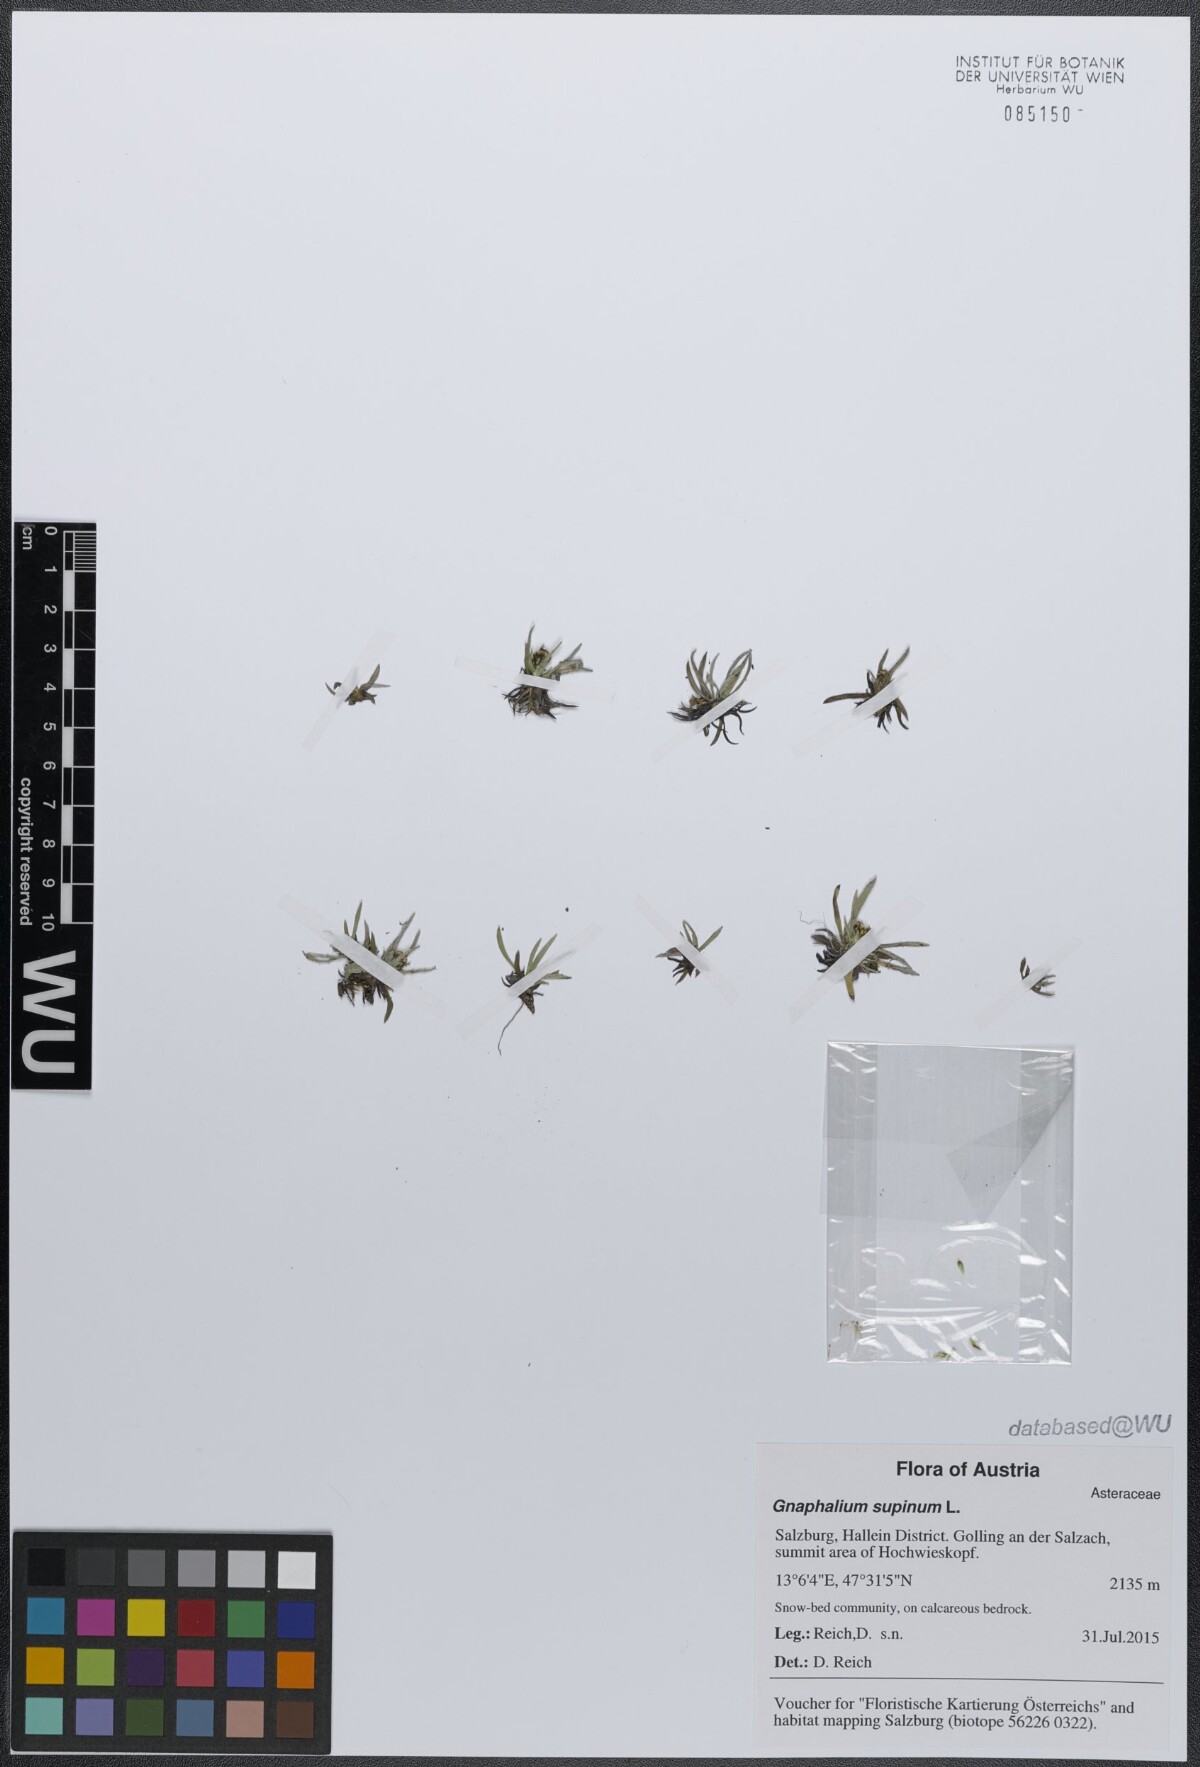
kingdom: Plantae
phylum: Tracheophyta
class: Magnoliopsida
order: Asterales
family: Asteraceae
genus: Omalotheca
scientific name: Omalotheca supina
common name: Alpine arctic-cudweed
